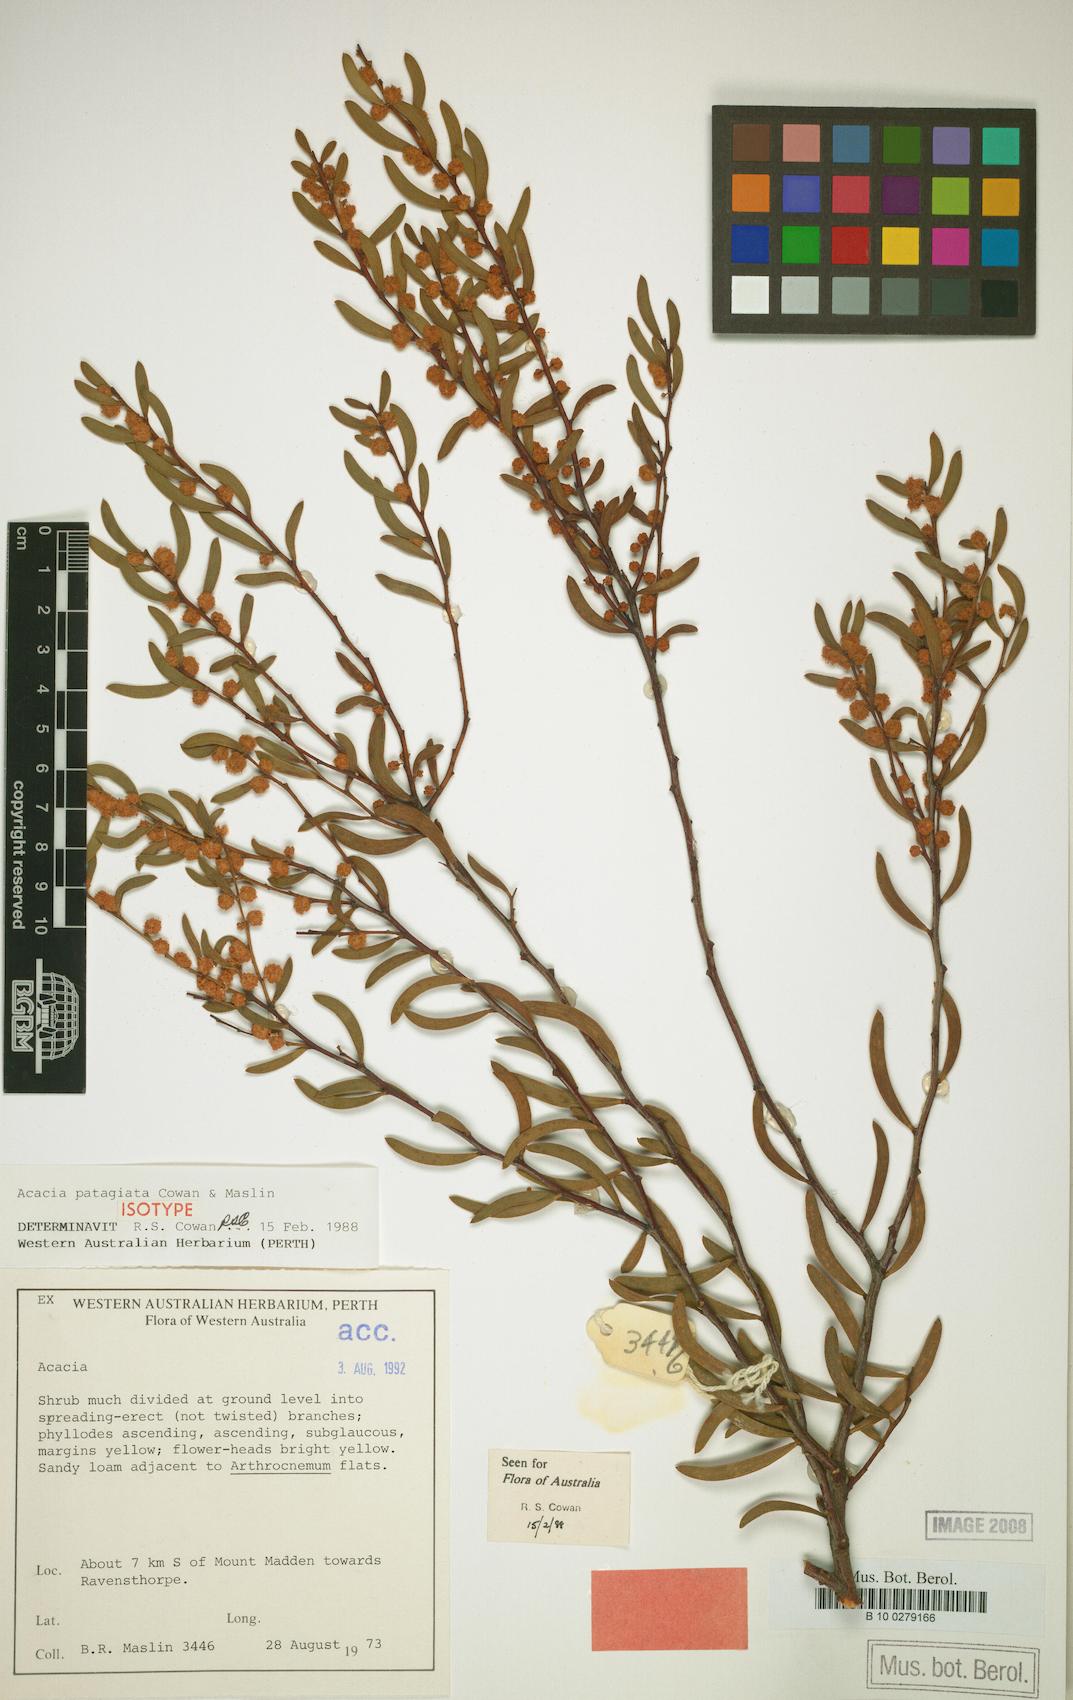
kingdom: Plantae
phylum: Tracheophyta
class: Magnoliopsida
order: Fabales
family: Fabaceae
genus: Acacia
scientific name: Acacia patagiata
